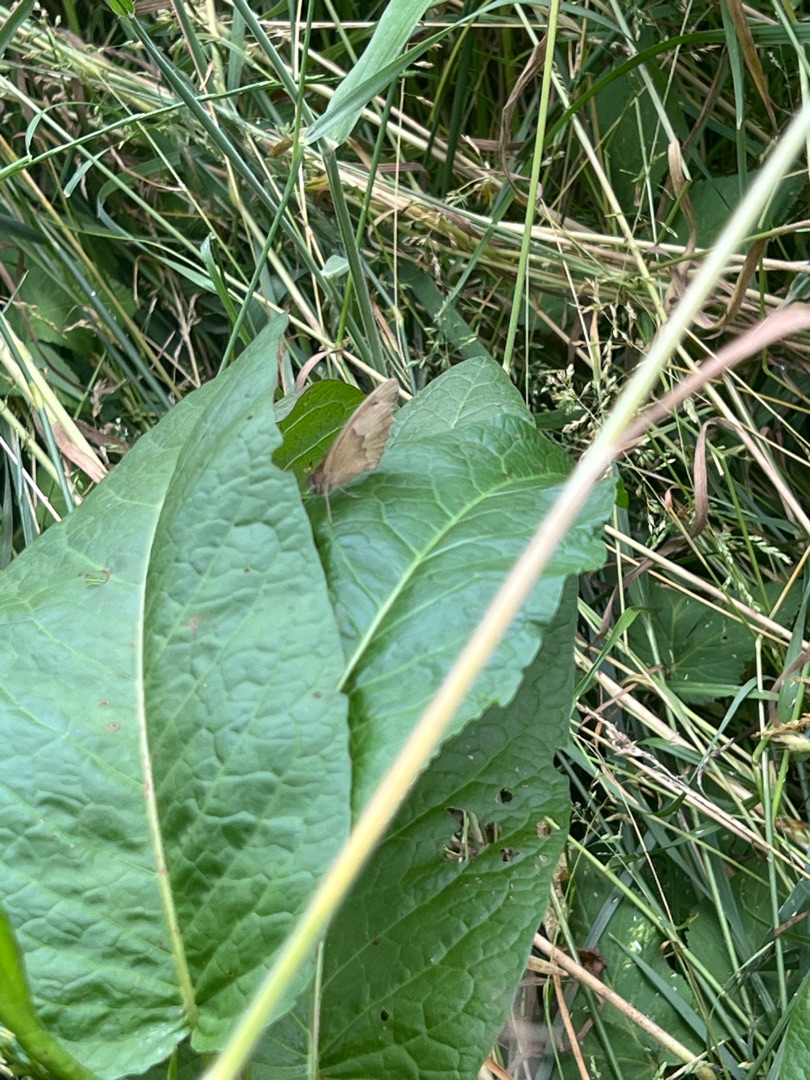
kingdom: Animalia
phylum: Arthropoda
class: Insecta
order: Lepidoptera
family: Nymphalidae
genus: Maniola
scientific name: Maniola jurtina
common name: Græsrandøje
